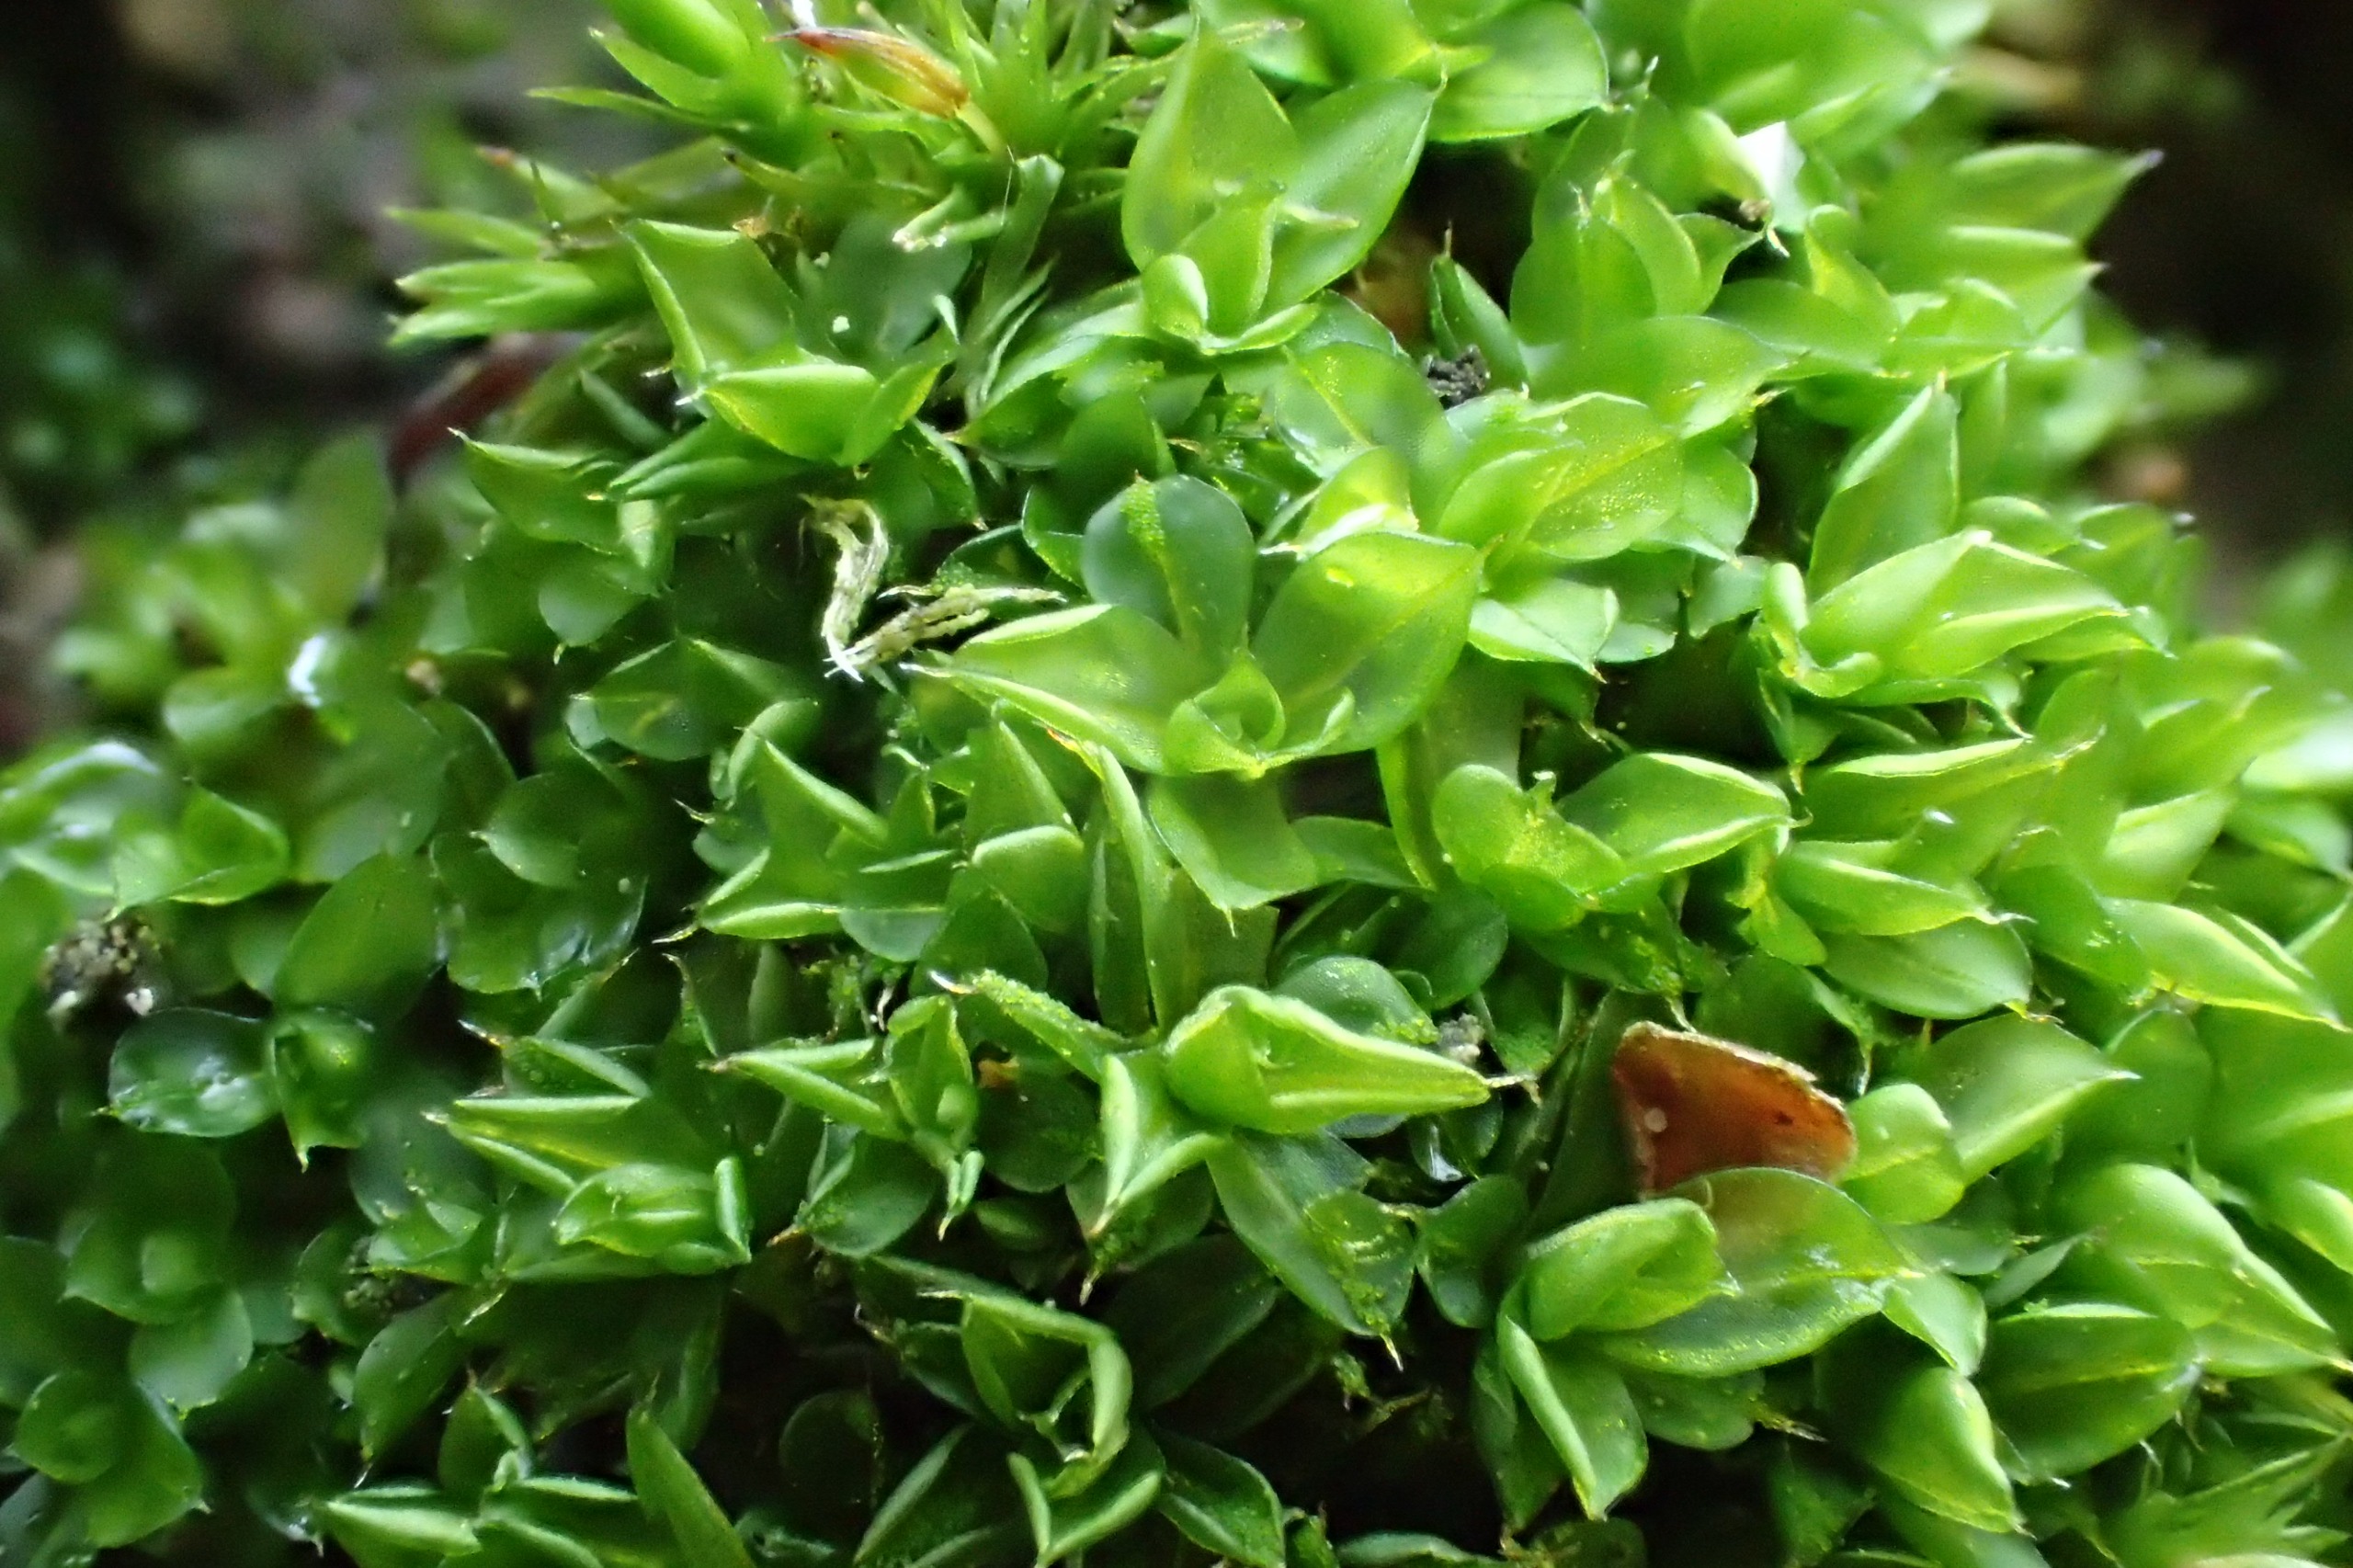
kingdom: Plantae
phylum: Bryophyta
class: Bryopsida
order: Pottiales
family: Pottiaceae
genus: Syntrichia
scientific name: Syntrichia papillosa
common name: Bark-hårstjerne
